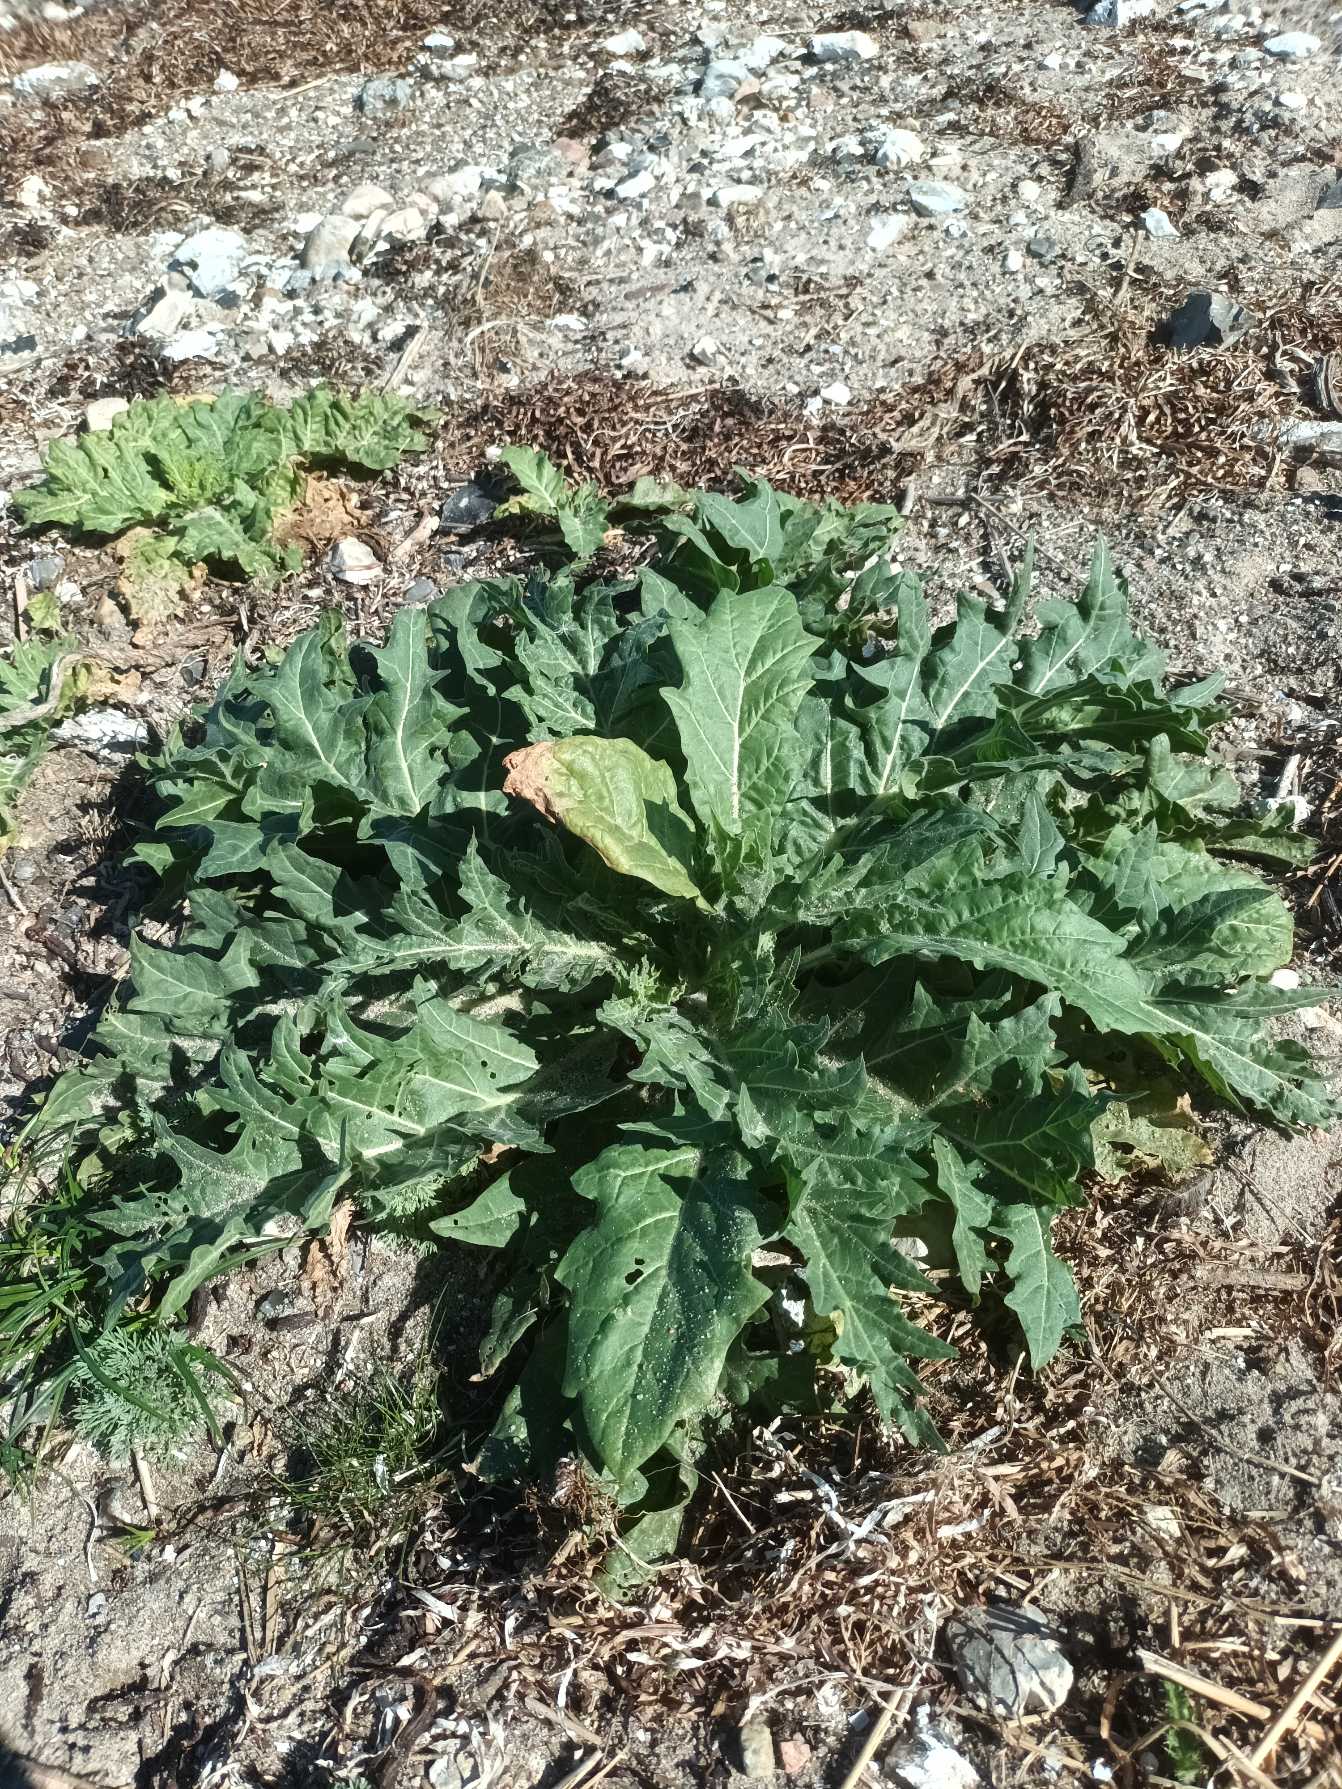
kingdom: Plantae
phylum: Tracheophyta
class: Magnoliopsida
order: Solanales
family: Solanaceae
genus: Hyoscyamus
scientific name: Hyoscyamus niger
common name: Bulmeurt
